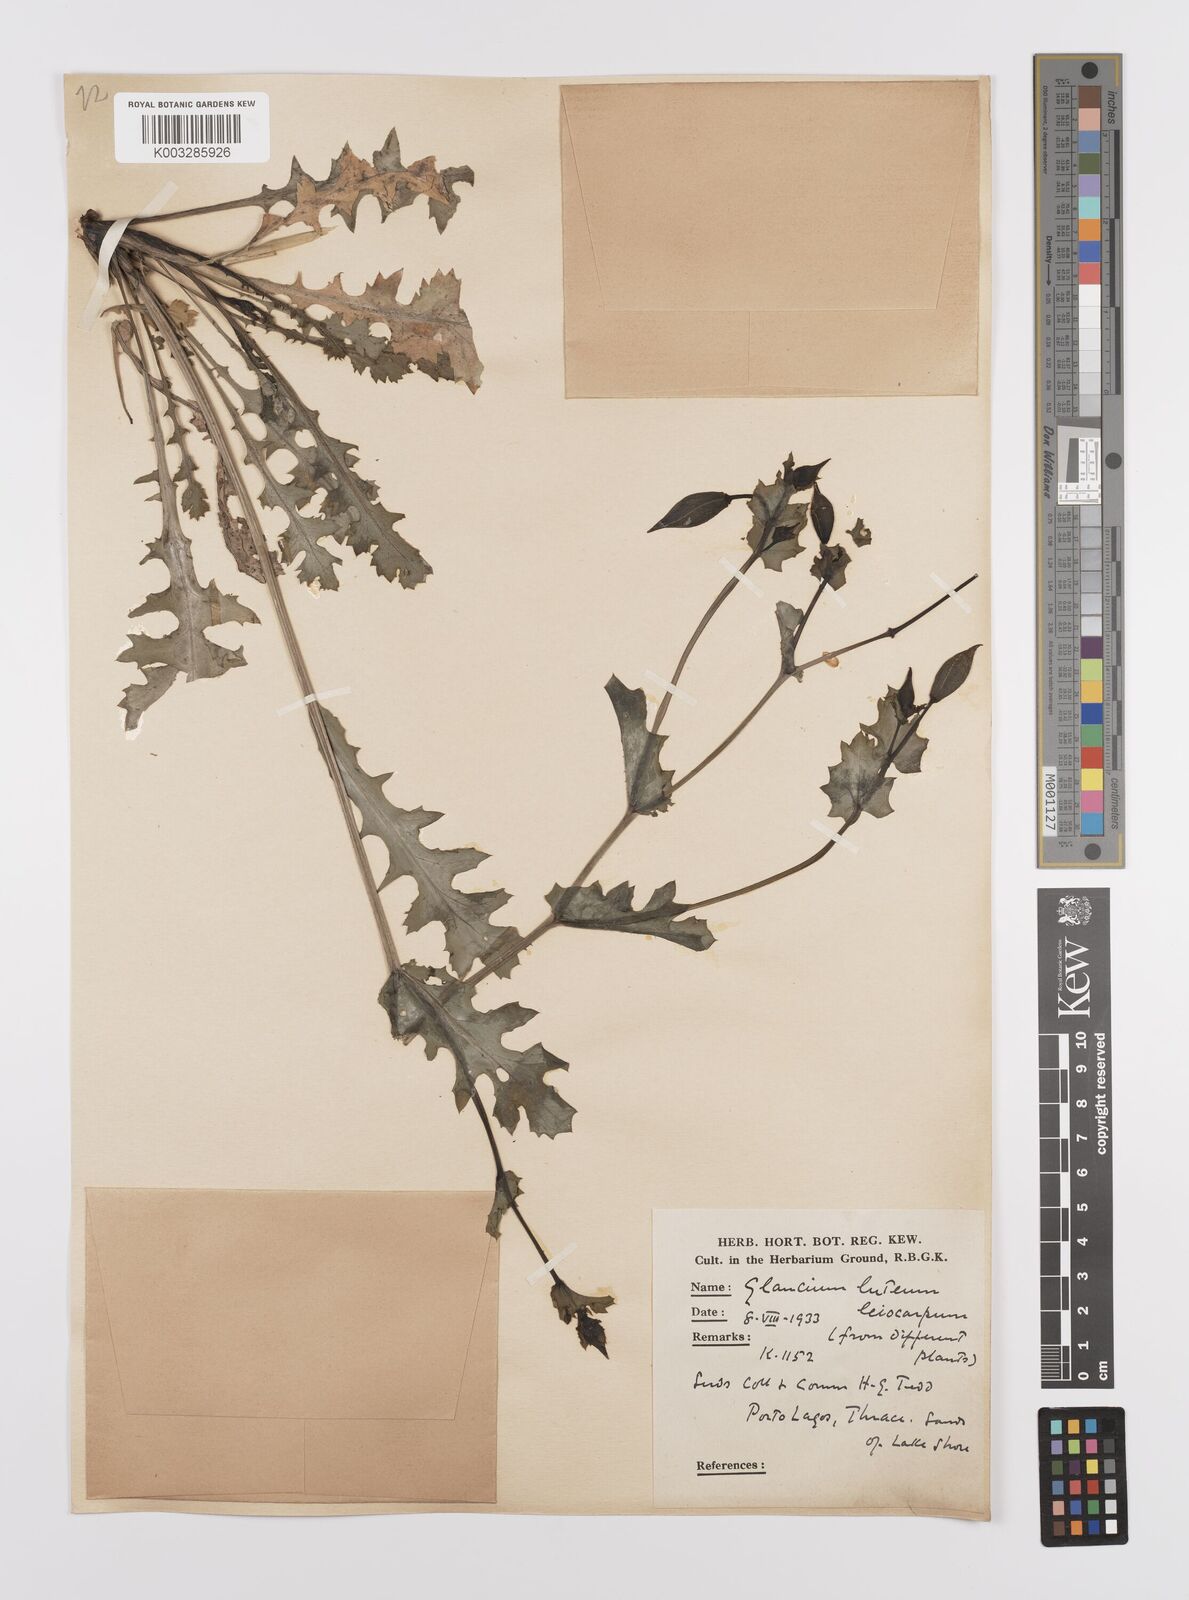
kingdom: Plantae
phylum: Tracheophyta
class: Magnoliopsida
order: Ranunculales
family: Papaveraceae
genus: Glaucium
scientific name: Glaucium flavum
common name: Yellow horned-poppy
